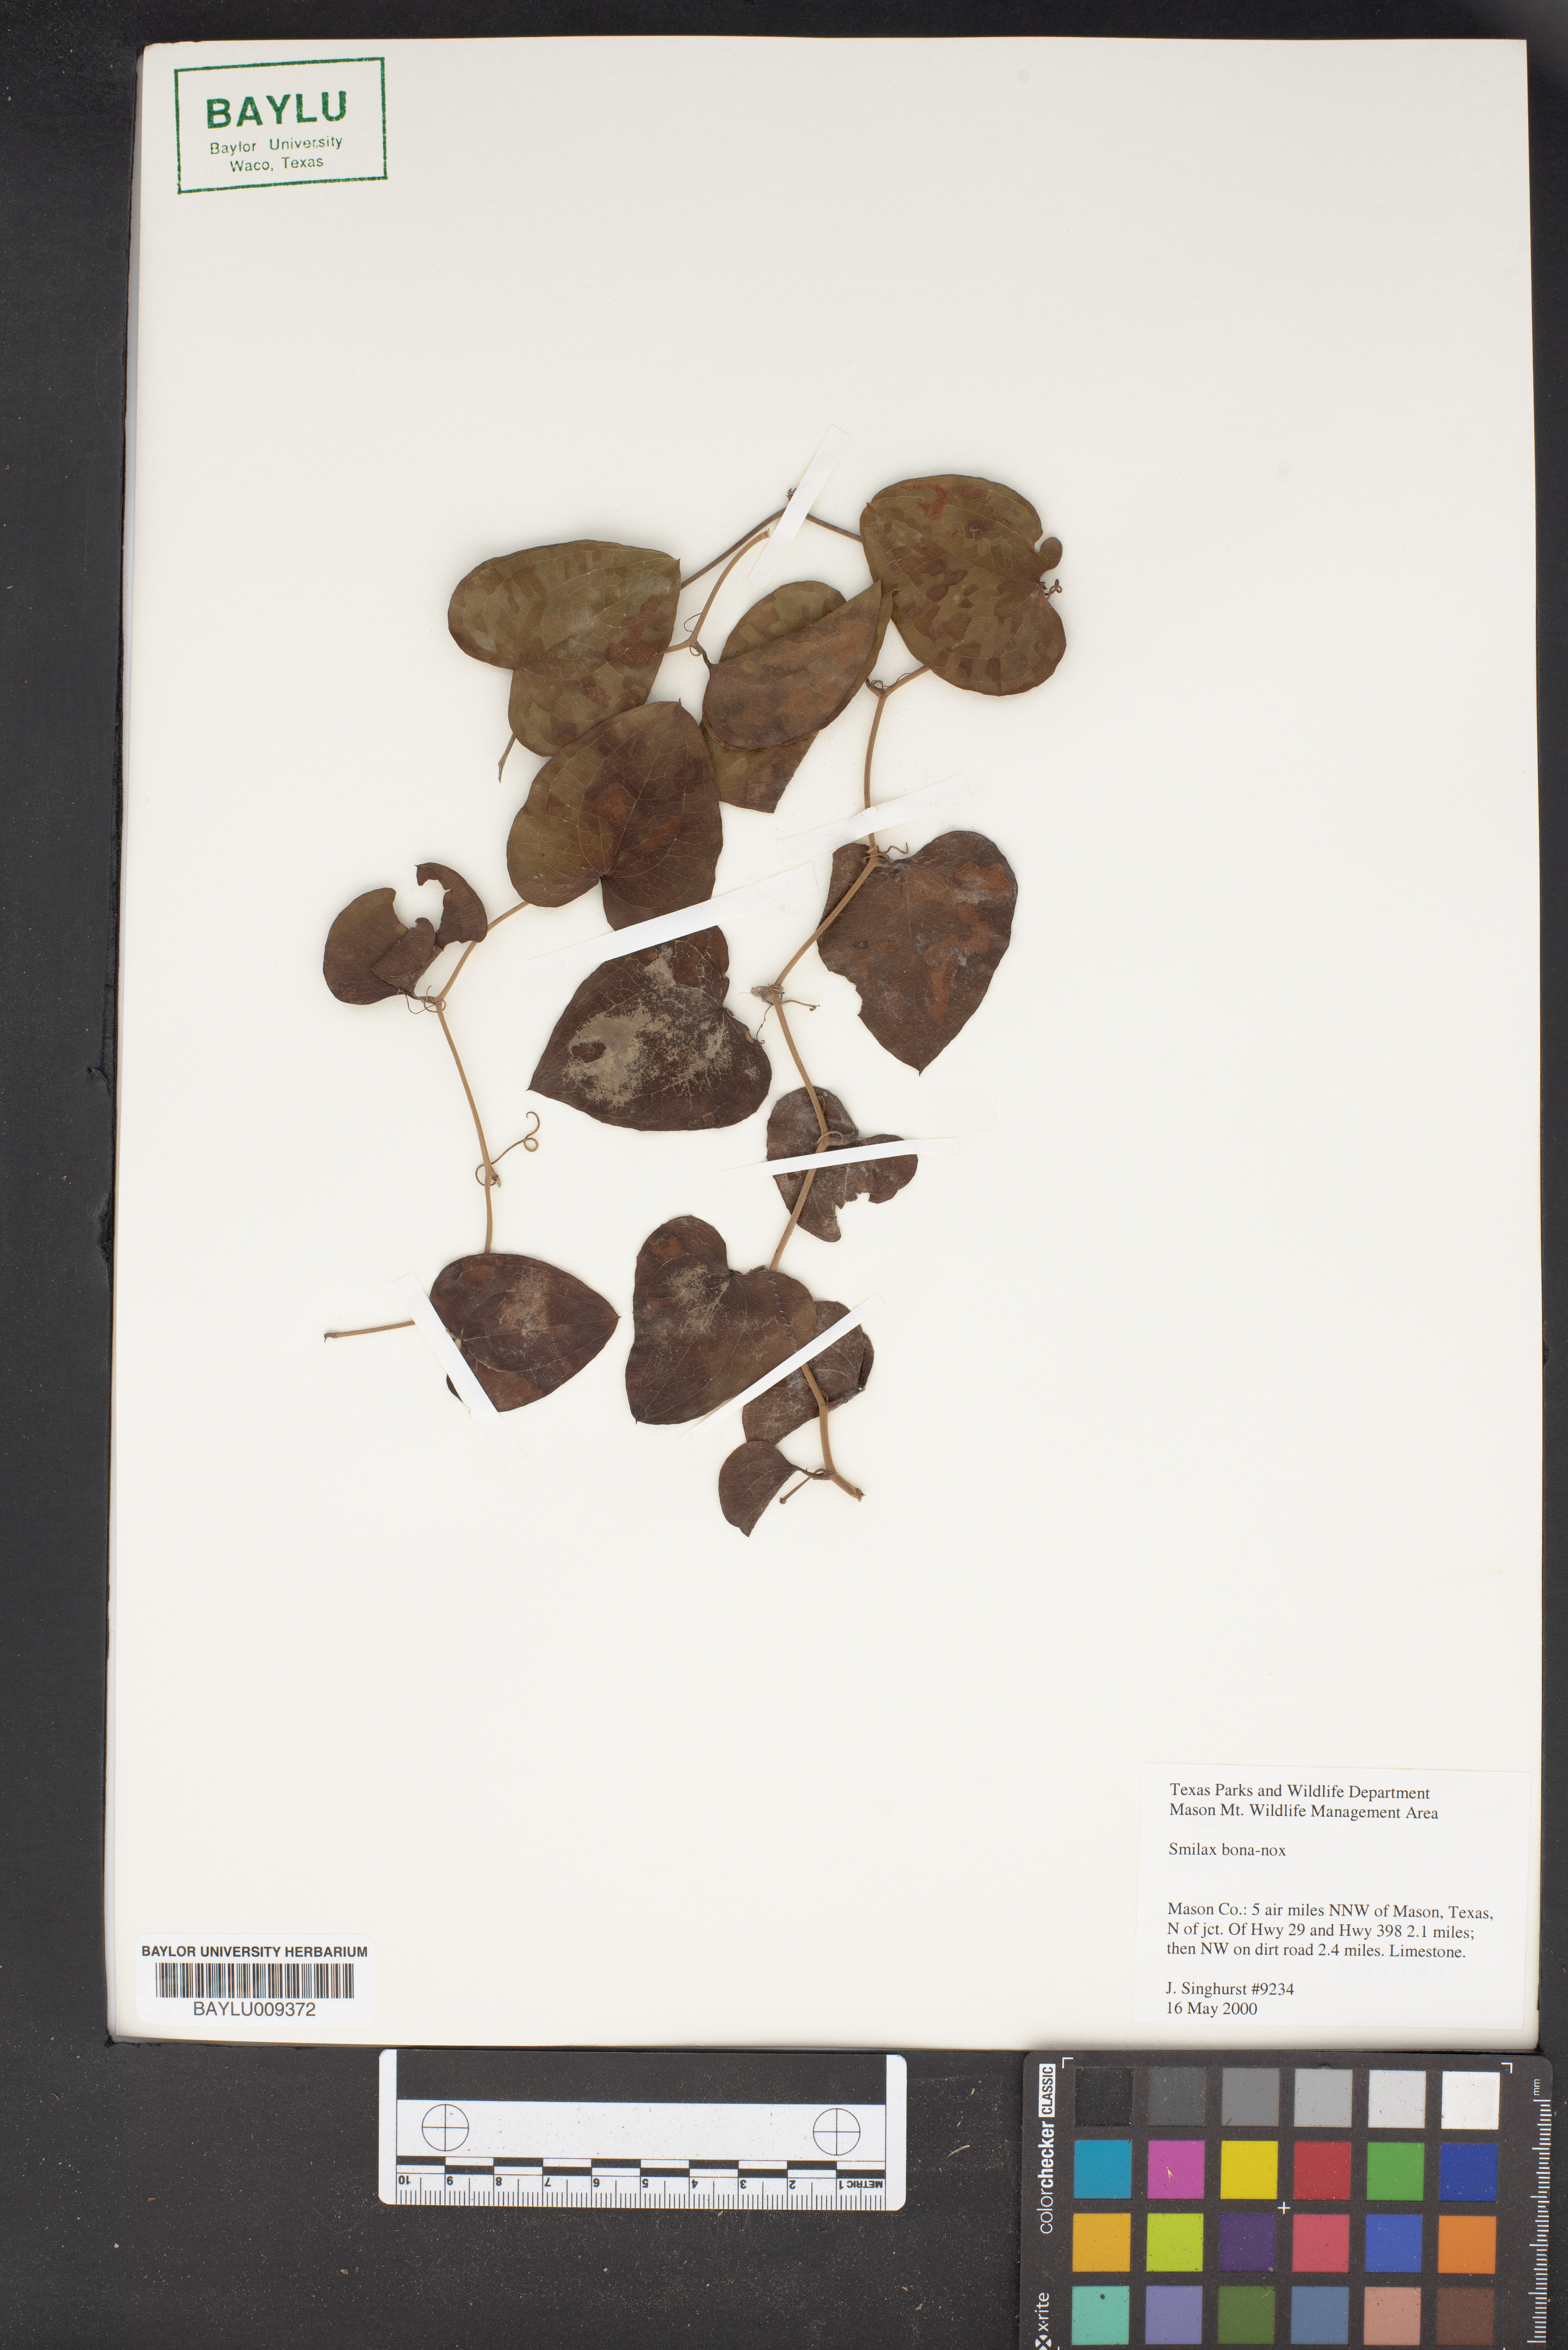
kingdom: Plantae
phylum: Tracheophyta
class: Liliopsida
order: Liliales
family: Smilacaceae
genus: Smilax
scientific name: Smilax bona-nox
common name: Catbrier
